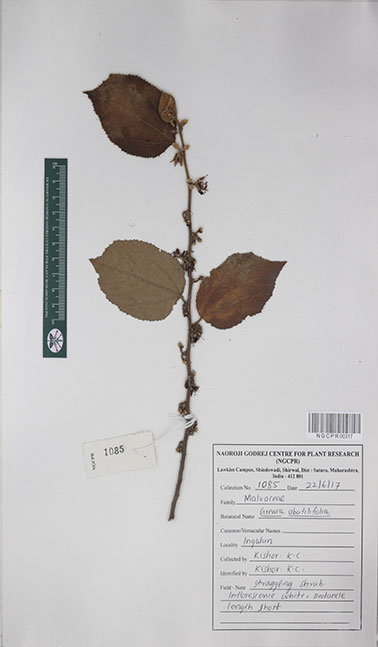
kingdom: Plantae
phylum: Tracheophyta
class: Magnoliopsida
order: Malvales
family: Malvaceae
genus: Grewia
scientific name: Grewia abutilifolia
